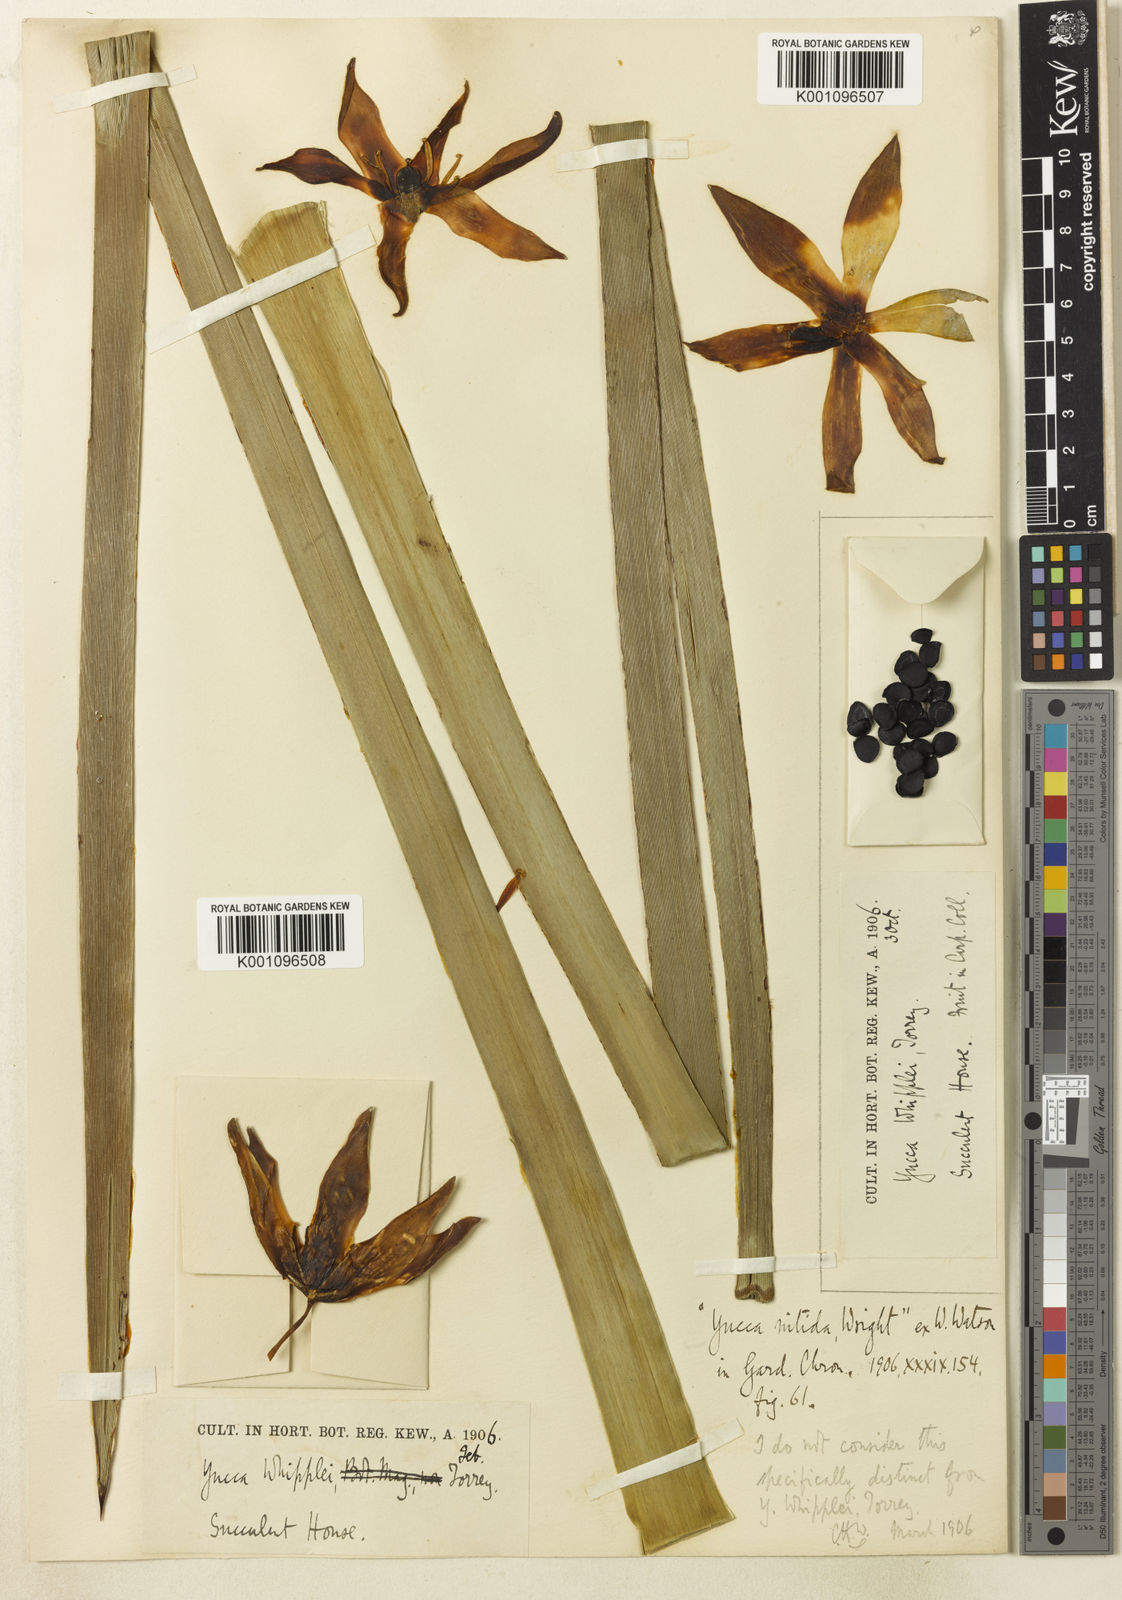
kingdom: Plantae
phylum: Tracheophyta
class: Liliopsida
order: Asparagales
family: Asparagaceae
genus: Hesperoyucca
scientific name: Hesperoyucca whipplei
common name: Our lord's-candle
